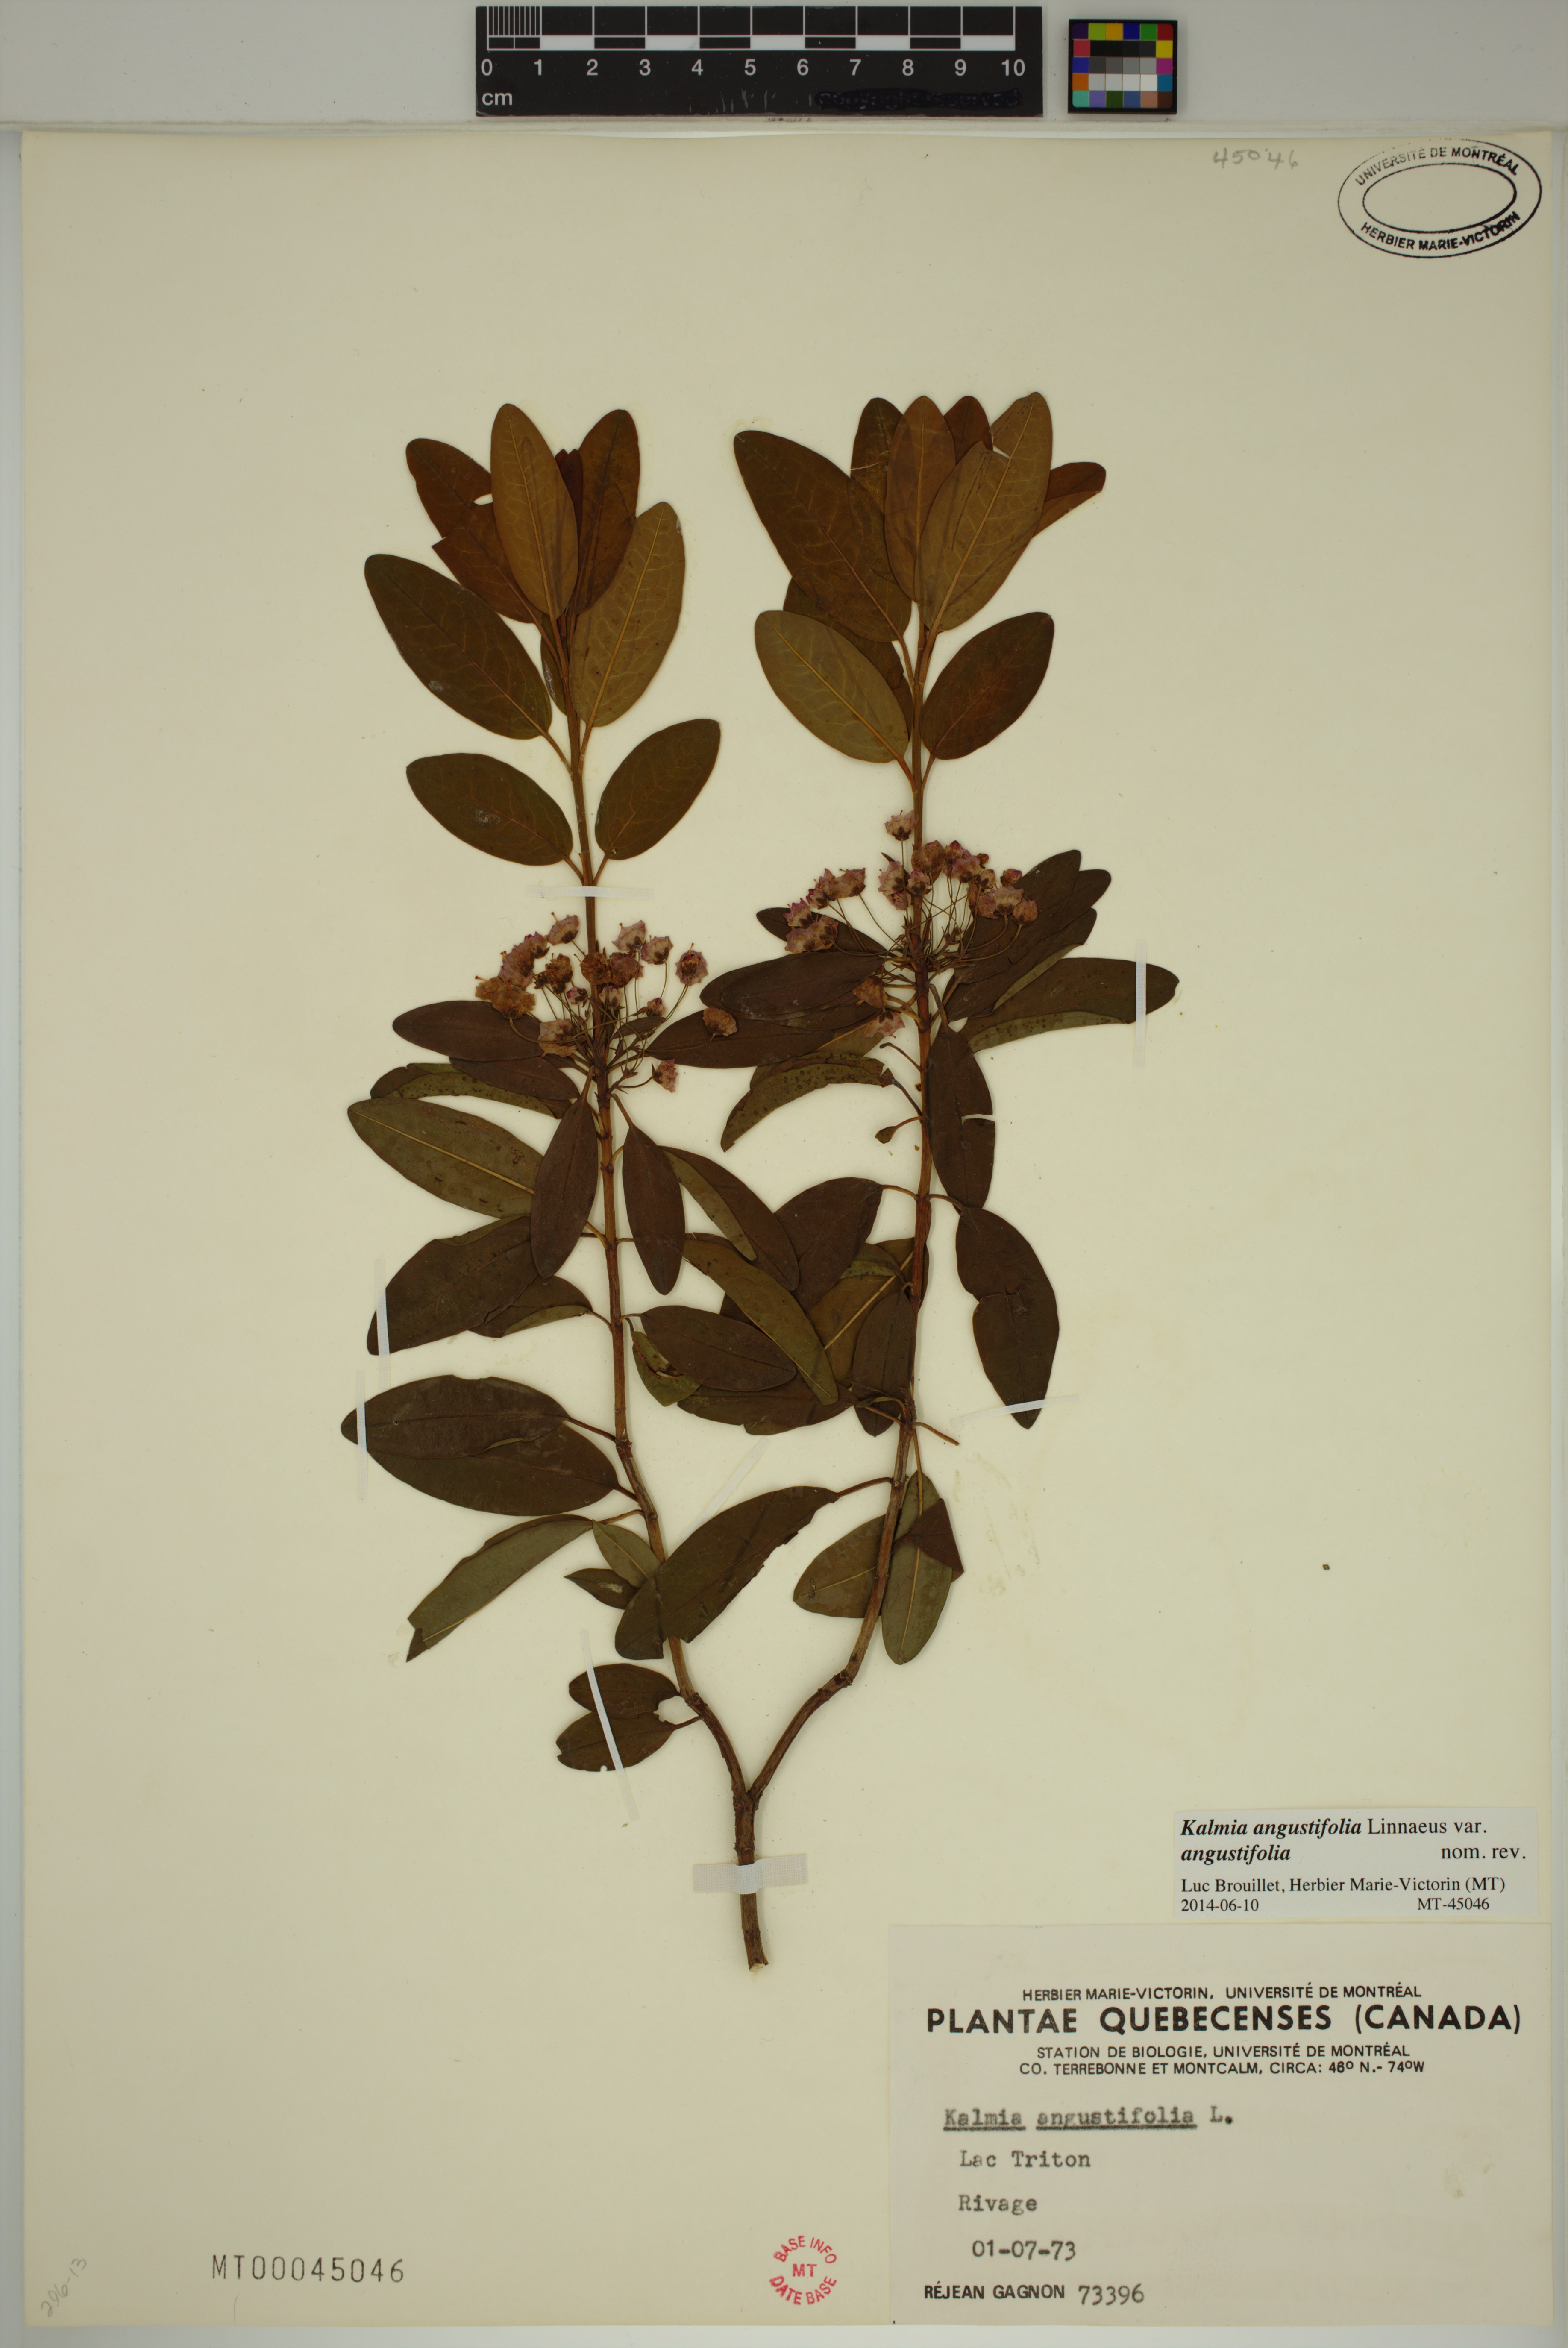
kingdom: Plantae
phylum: Tracheophyta
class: Magnoliopsida
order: Ericales
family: Ericaceae
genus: Kalmia
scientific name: Kalmia angustifolia
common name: Sheep-laurel
